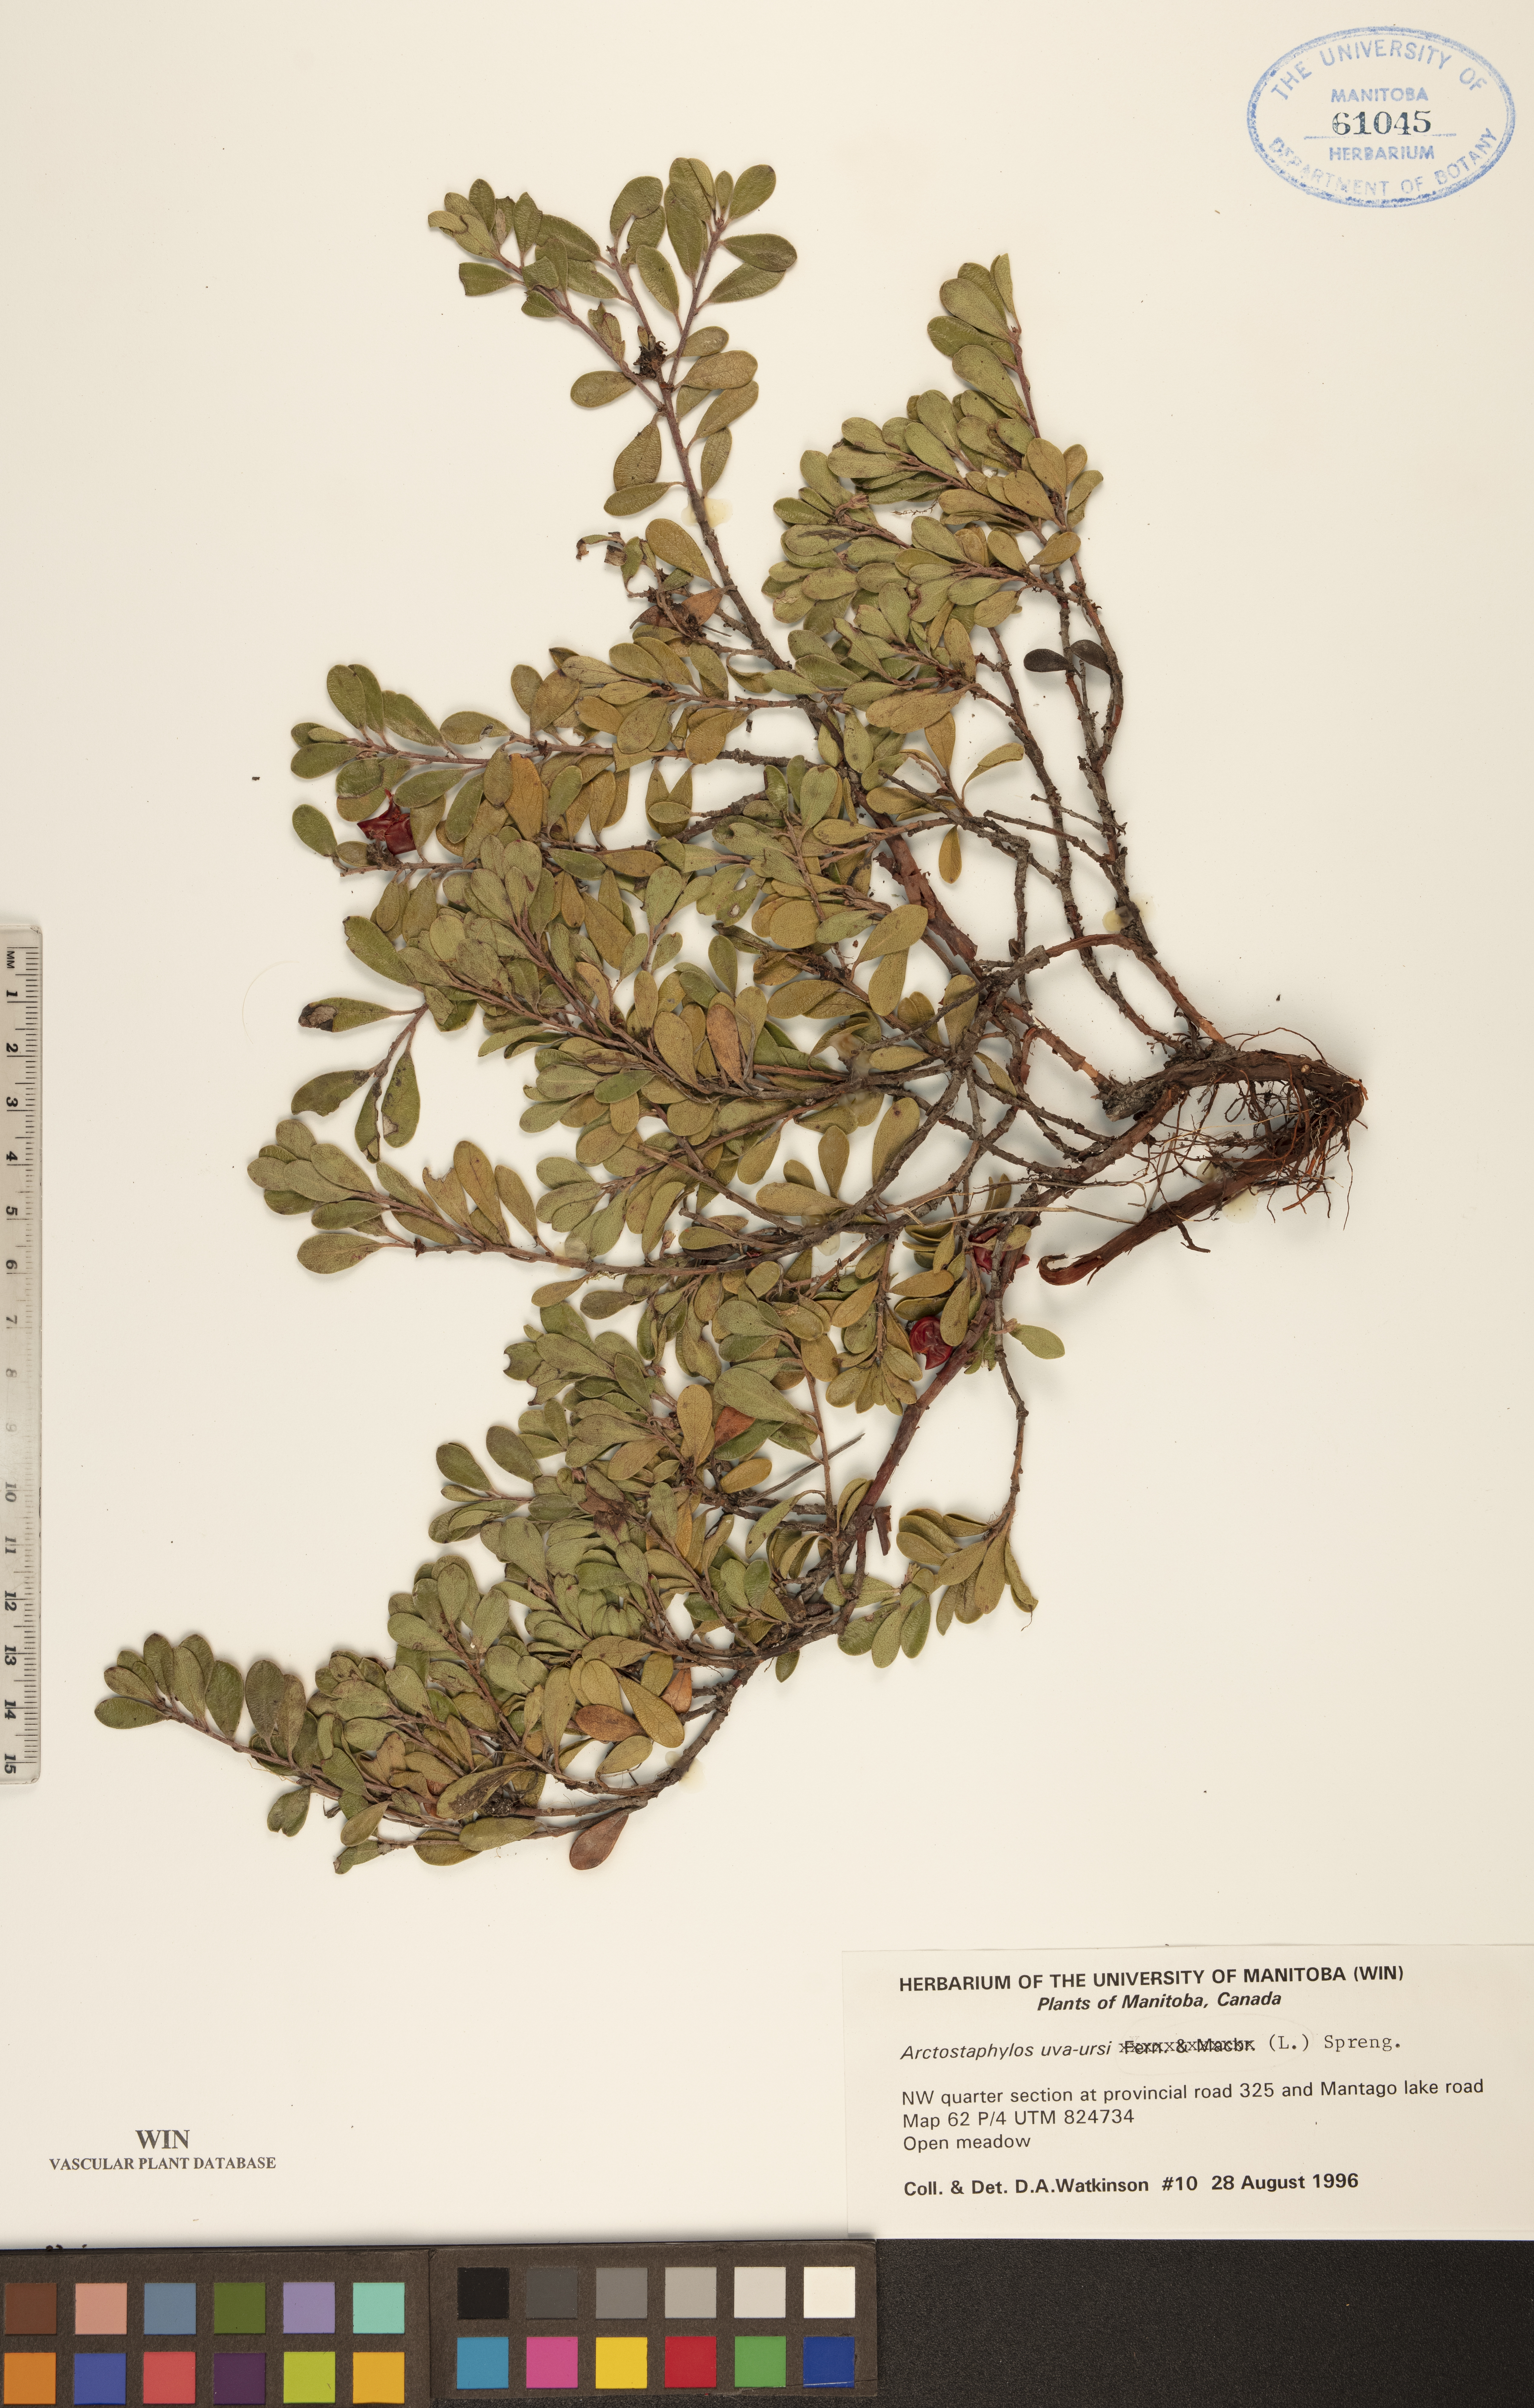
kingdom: Plantae
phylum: Tracheophyta
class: Magnoliopsida
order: Ericales
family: Ericaceae
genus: Arctostaphylos
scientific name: Arctostaphylos uva-ursi
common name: Bearberry
